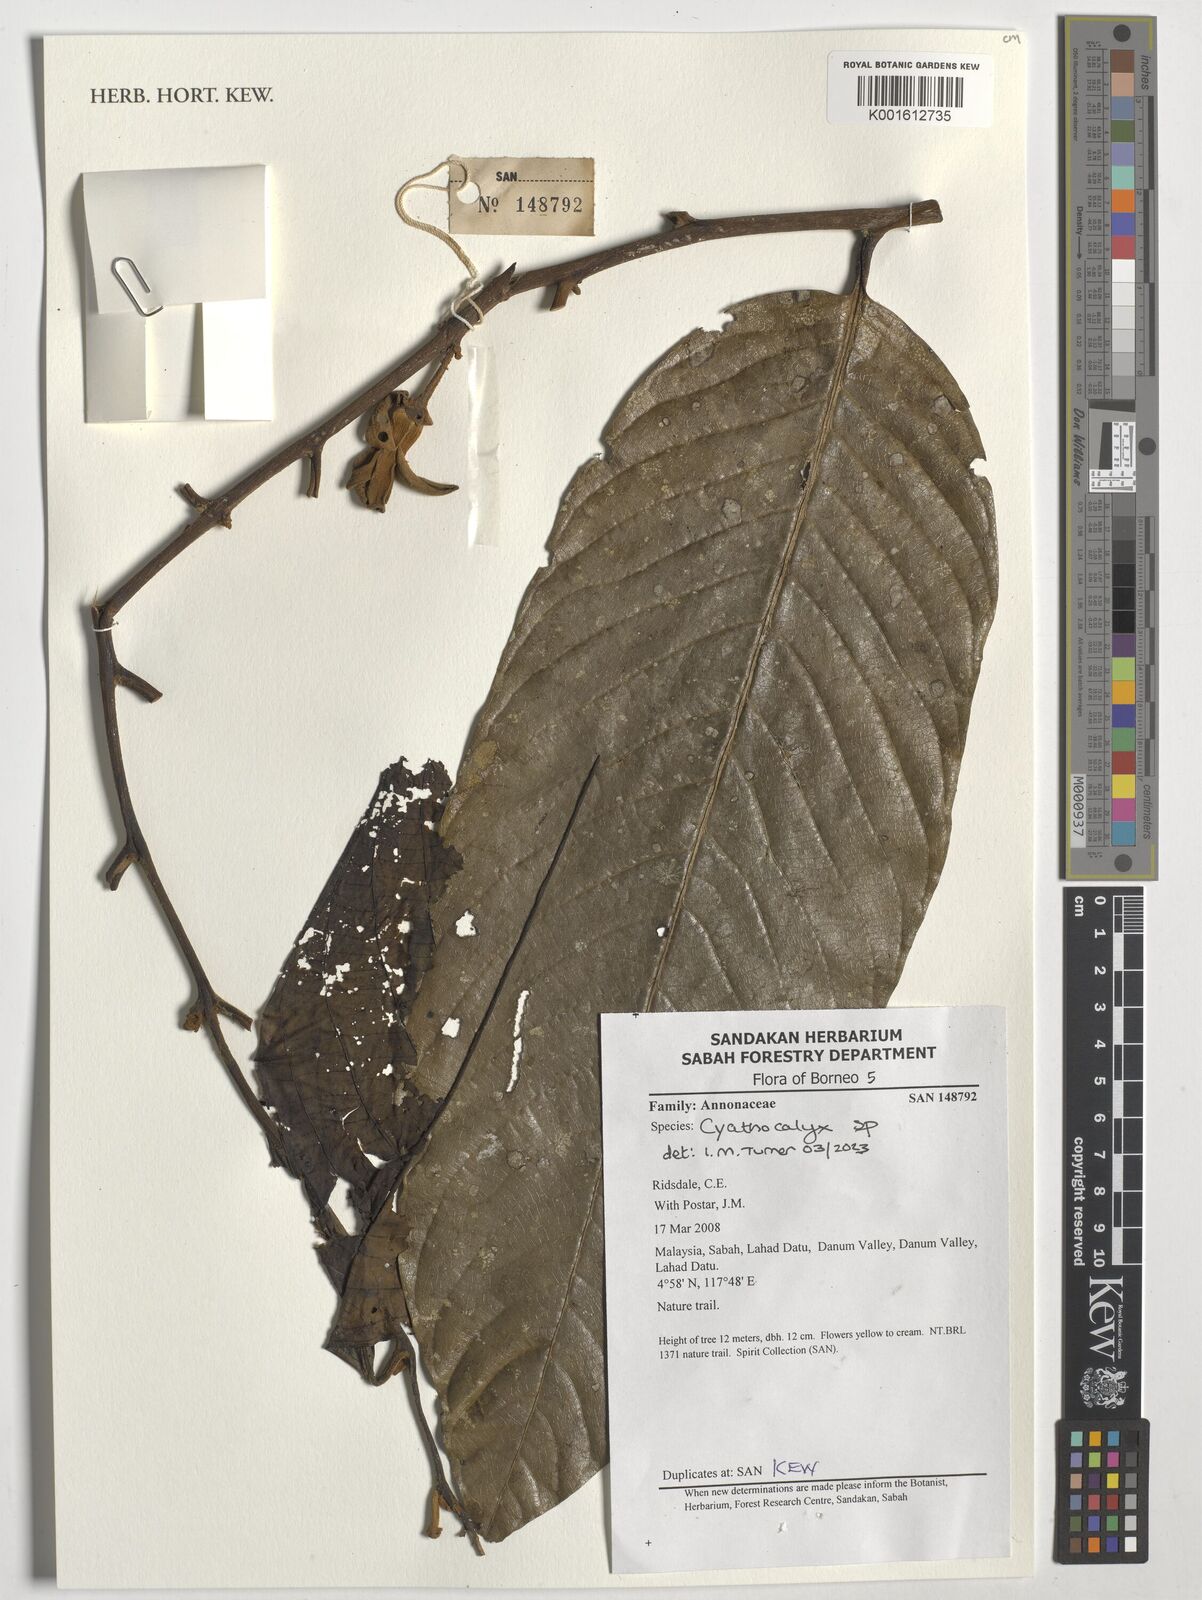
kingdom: Plantae
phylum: Tracheophyta
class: Magnoliopsida
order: Magnoliales
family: Annonaceae
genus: Cyathocalyx
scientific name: Cyathocalyx
